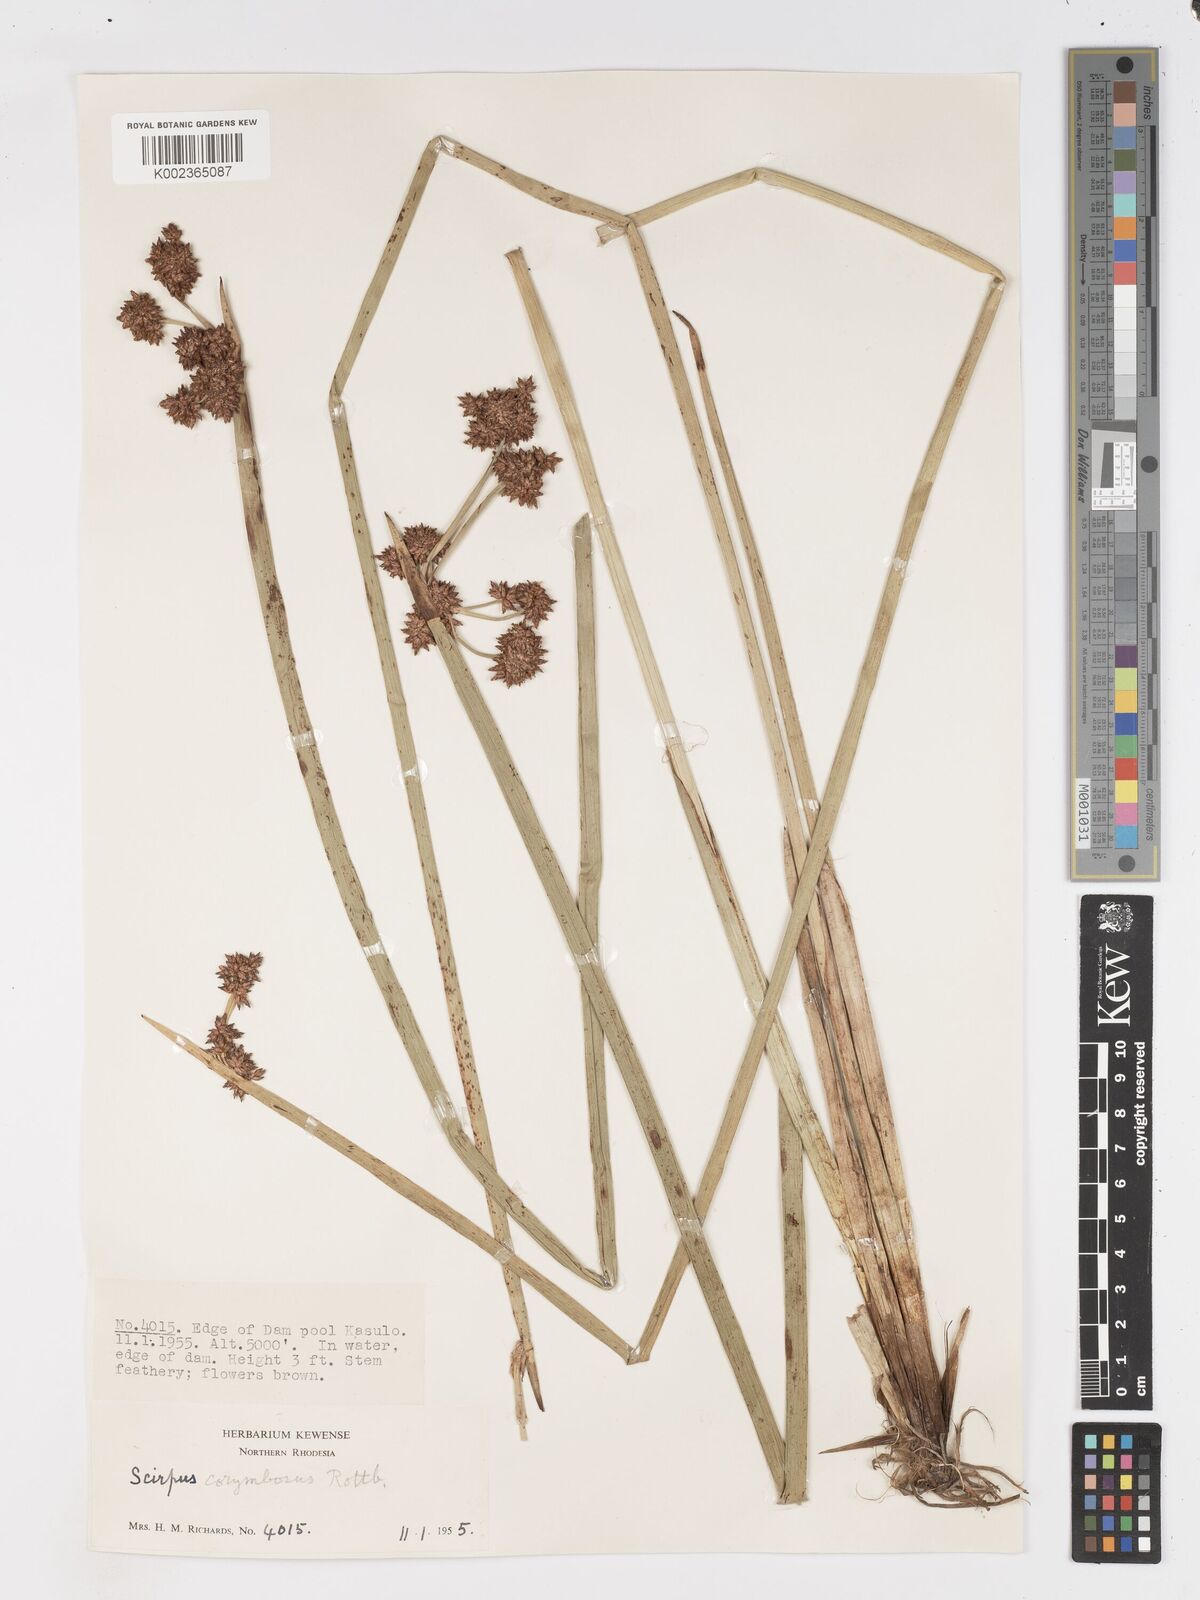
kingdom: Plantae
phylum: Tracheophyta
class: Liliopsida
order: Poales
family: Cyperaceae
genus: Schoenoplectiella
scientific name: Schoenoplectiella brachyceras
